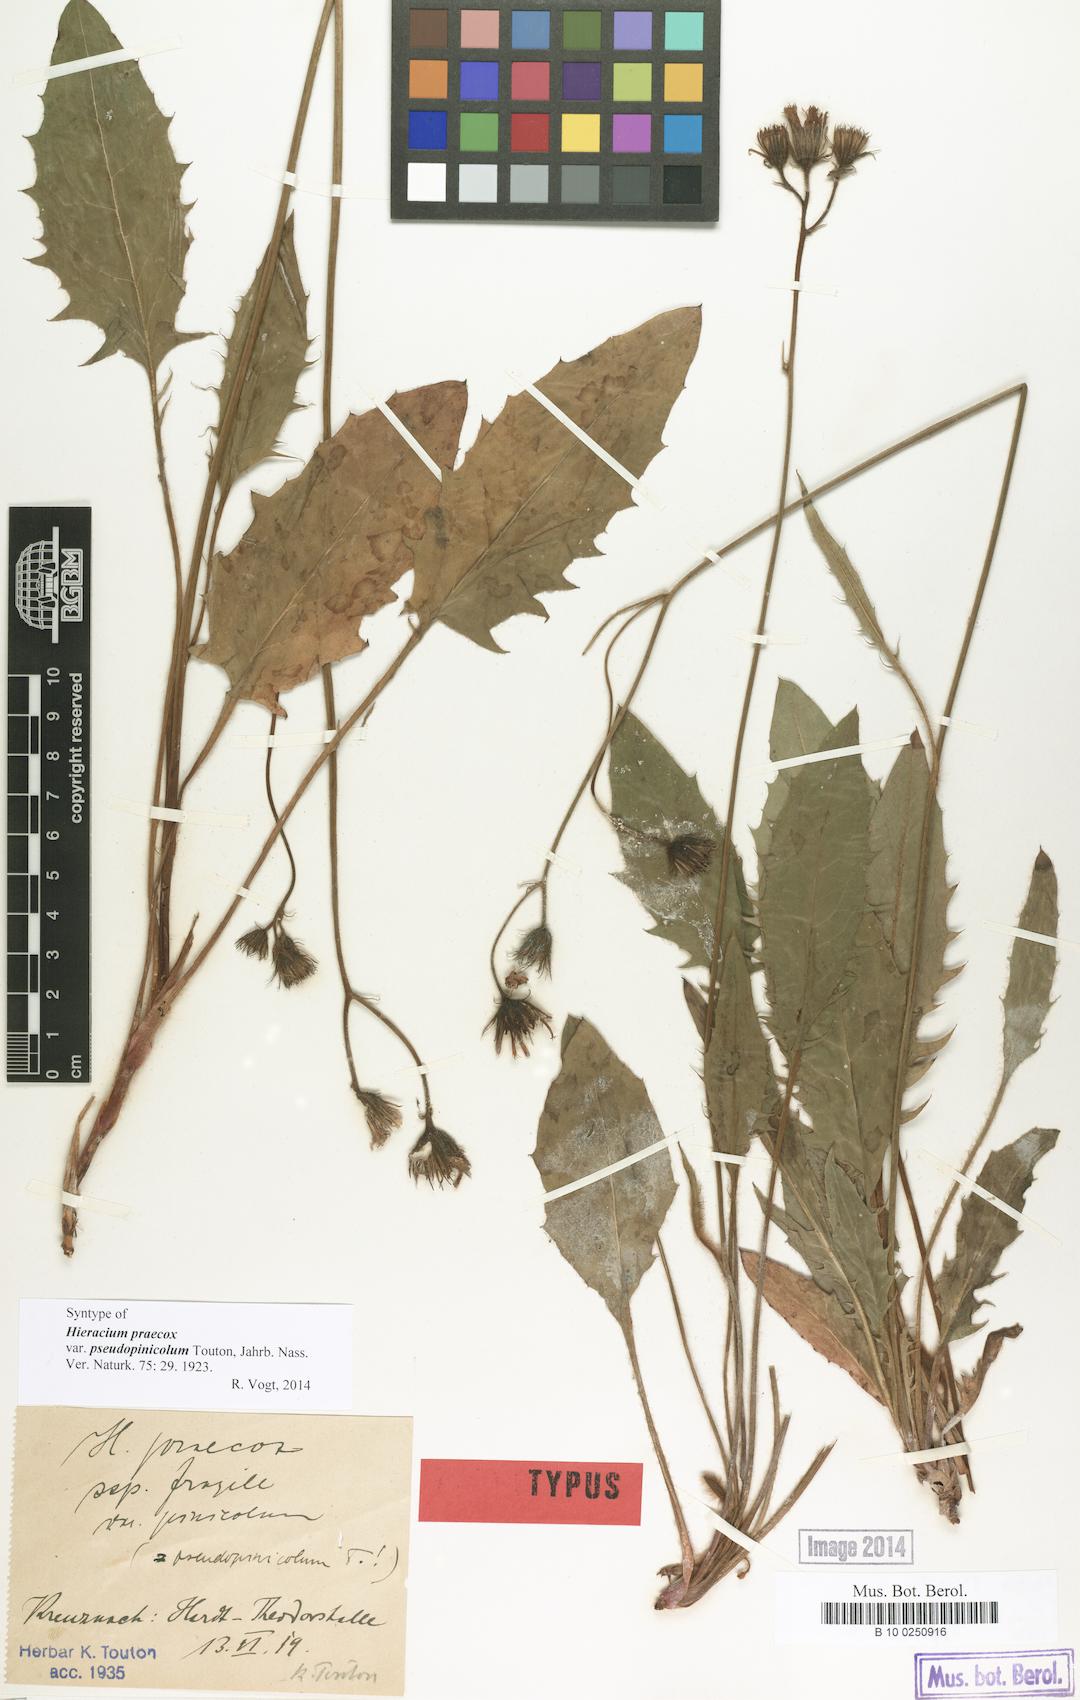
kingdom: Plantae
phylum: Tracheophyta
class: Magnoliopsida
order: Asterales
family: Asteraceae
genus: Hieracium
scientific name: Hieracium praecox
